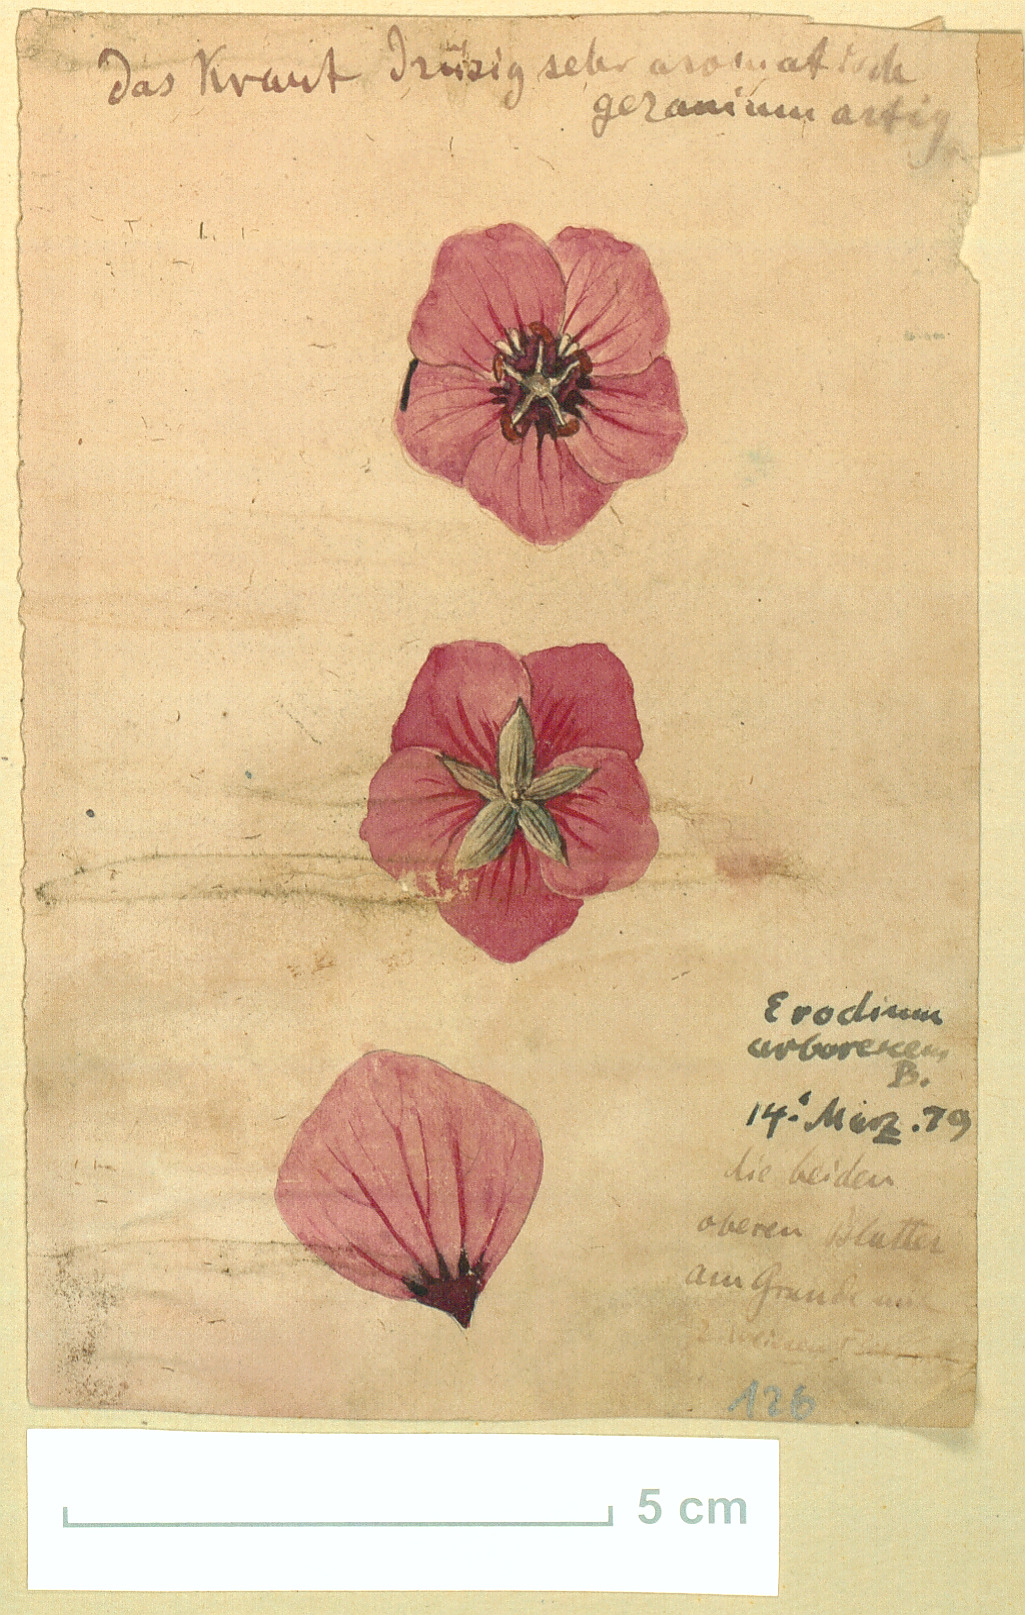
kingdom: Plantae
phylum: Tracheophyta
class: Magnoliopsida
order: Geraniales
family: Geraniaceae
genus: Erodium
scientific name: Erodium arborescens
